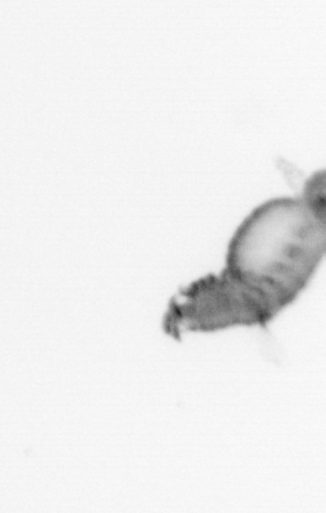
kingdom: Animalia
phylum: Annelida
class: Polychaeta
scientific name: Polychaeta
